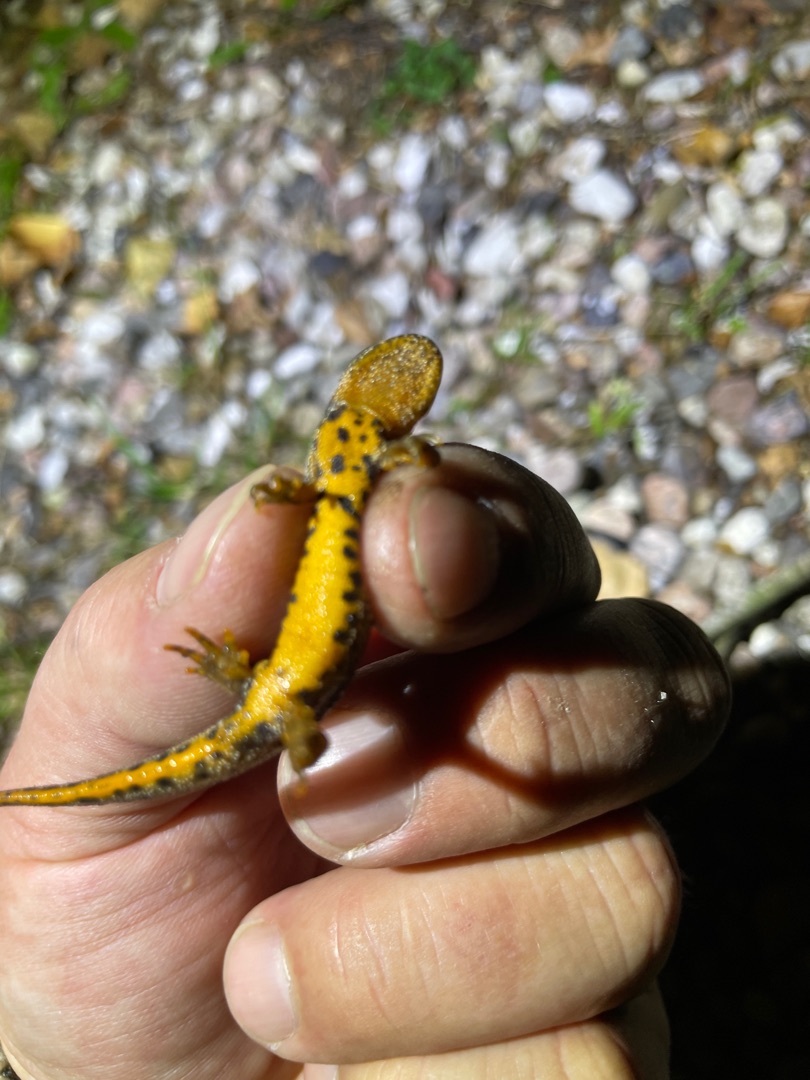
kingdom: Animalia
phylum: Chordata
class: Amphibia
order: Caudata
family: Salamandridae
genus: Triturus
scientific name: Triturus cristatus
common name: Stor vandsalamander
